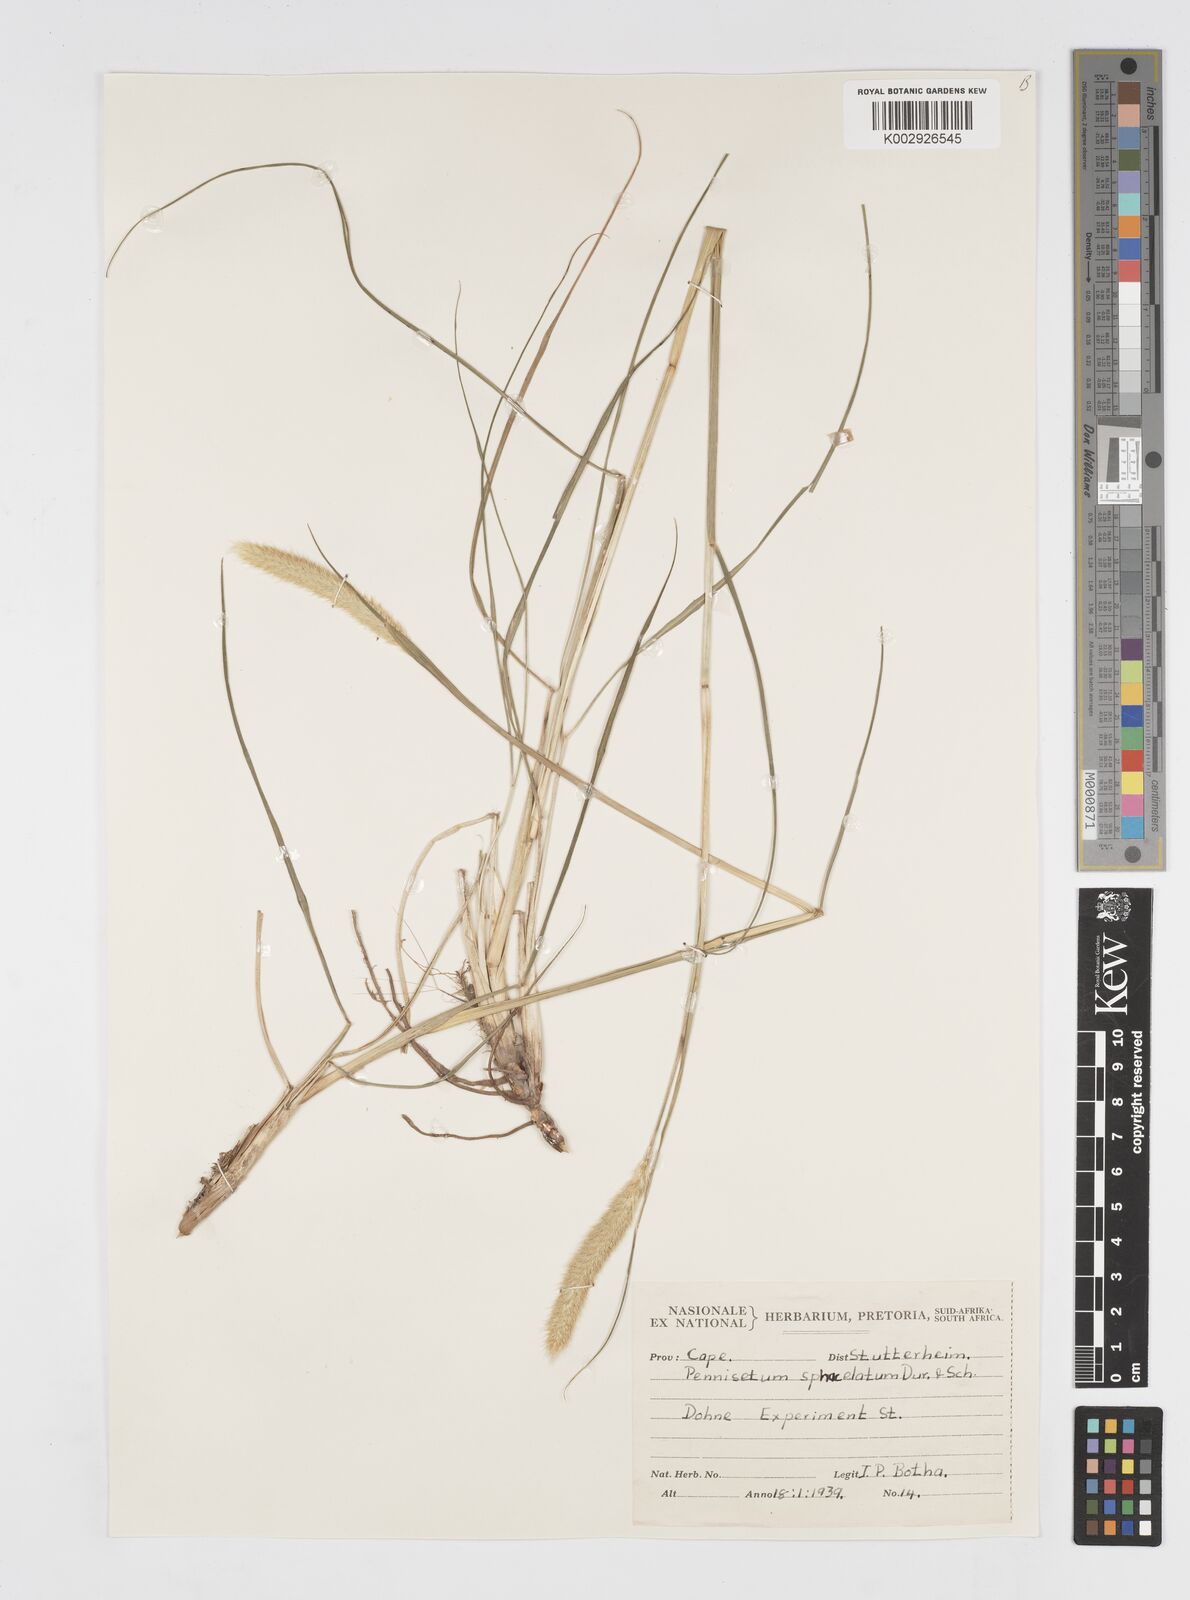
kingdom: Plantae
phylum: Tracheophyta
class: Liliopsida
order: Poales
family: Poaceae
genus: Cenchrus
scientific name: Cenchrus sphacelatus
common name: Bulgras
